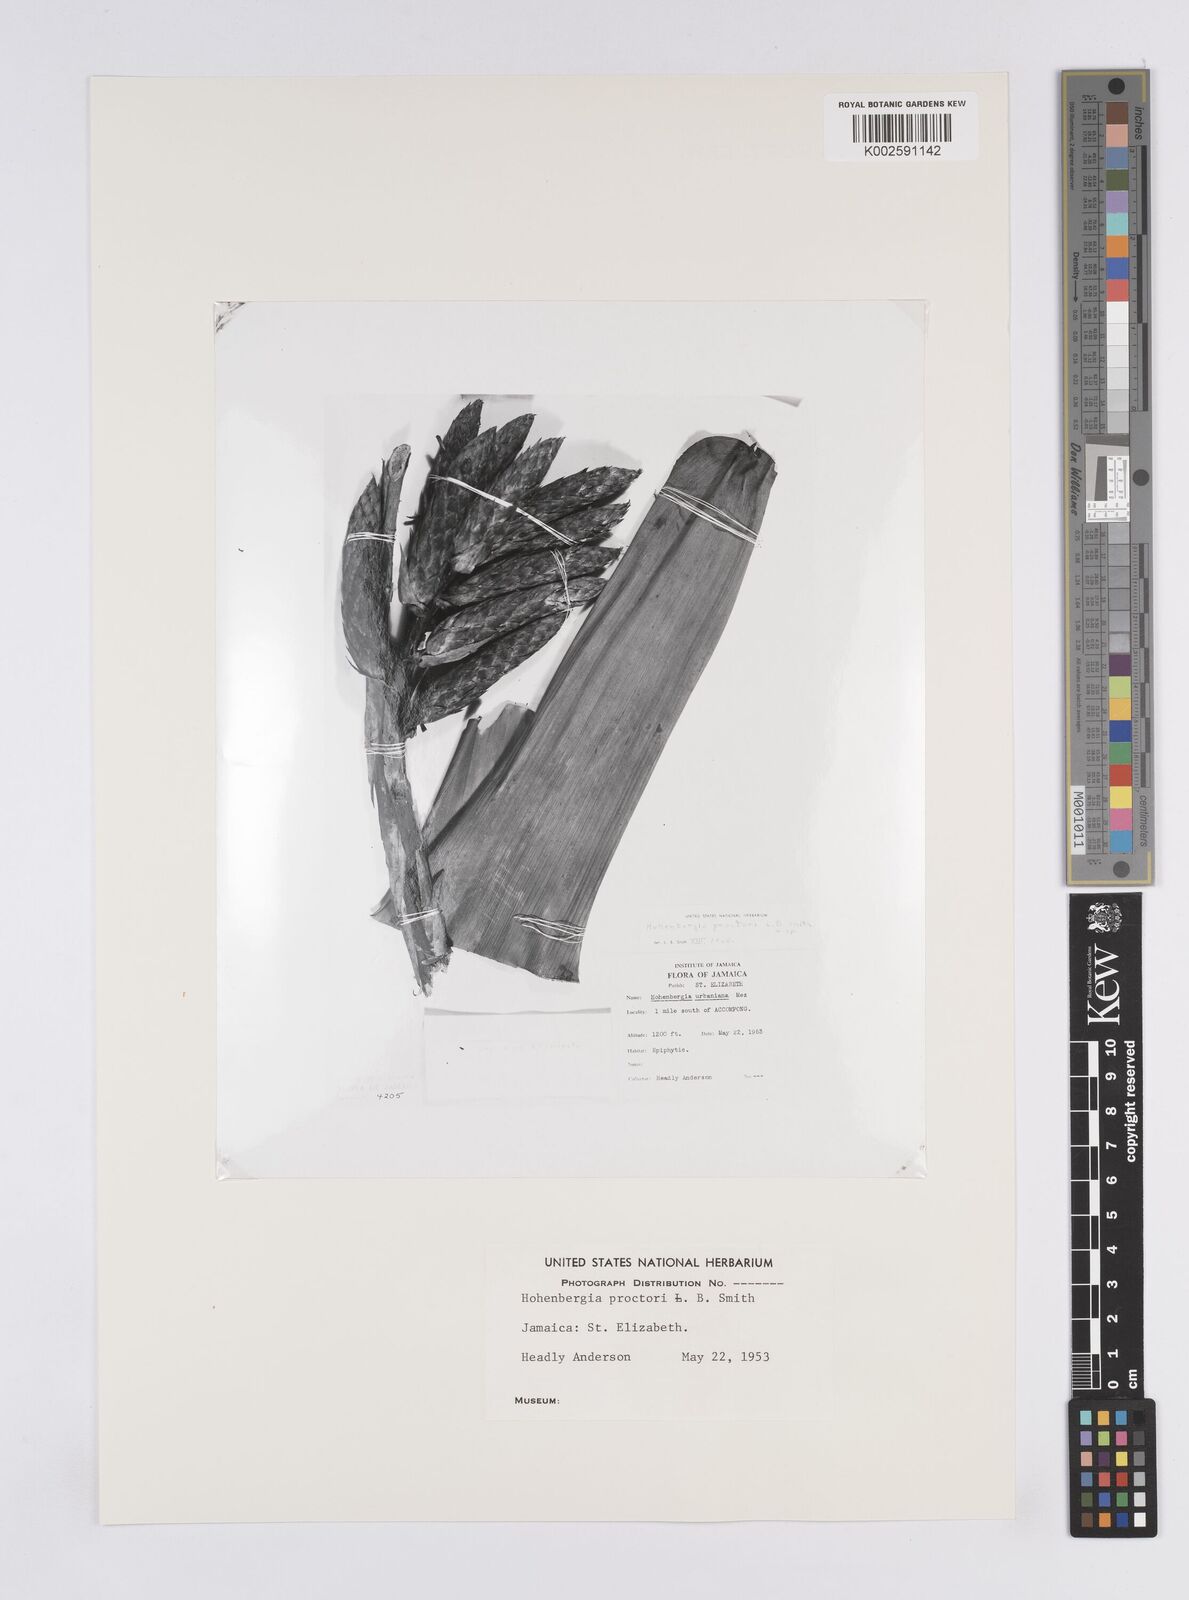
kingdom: Plantae
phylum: Tracheophyta
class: Liliopsida
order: Poales
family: Bromeliaceae
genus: Wittmackia
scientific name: Wittmackia urbaniana
